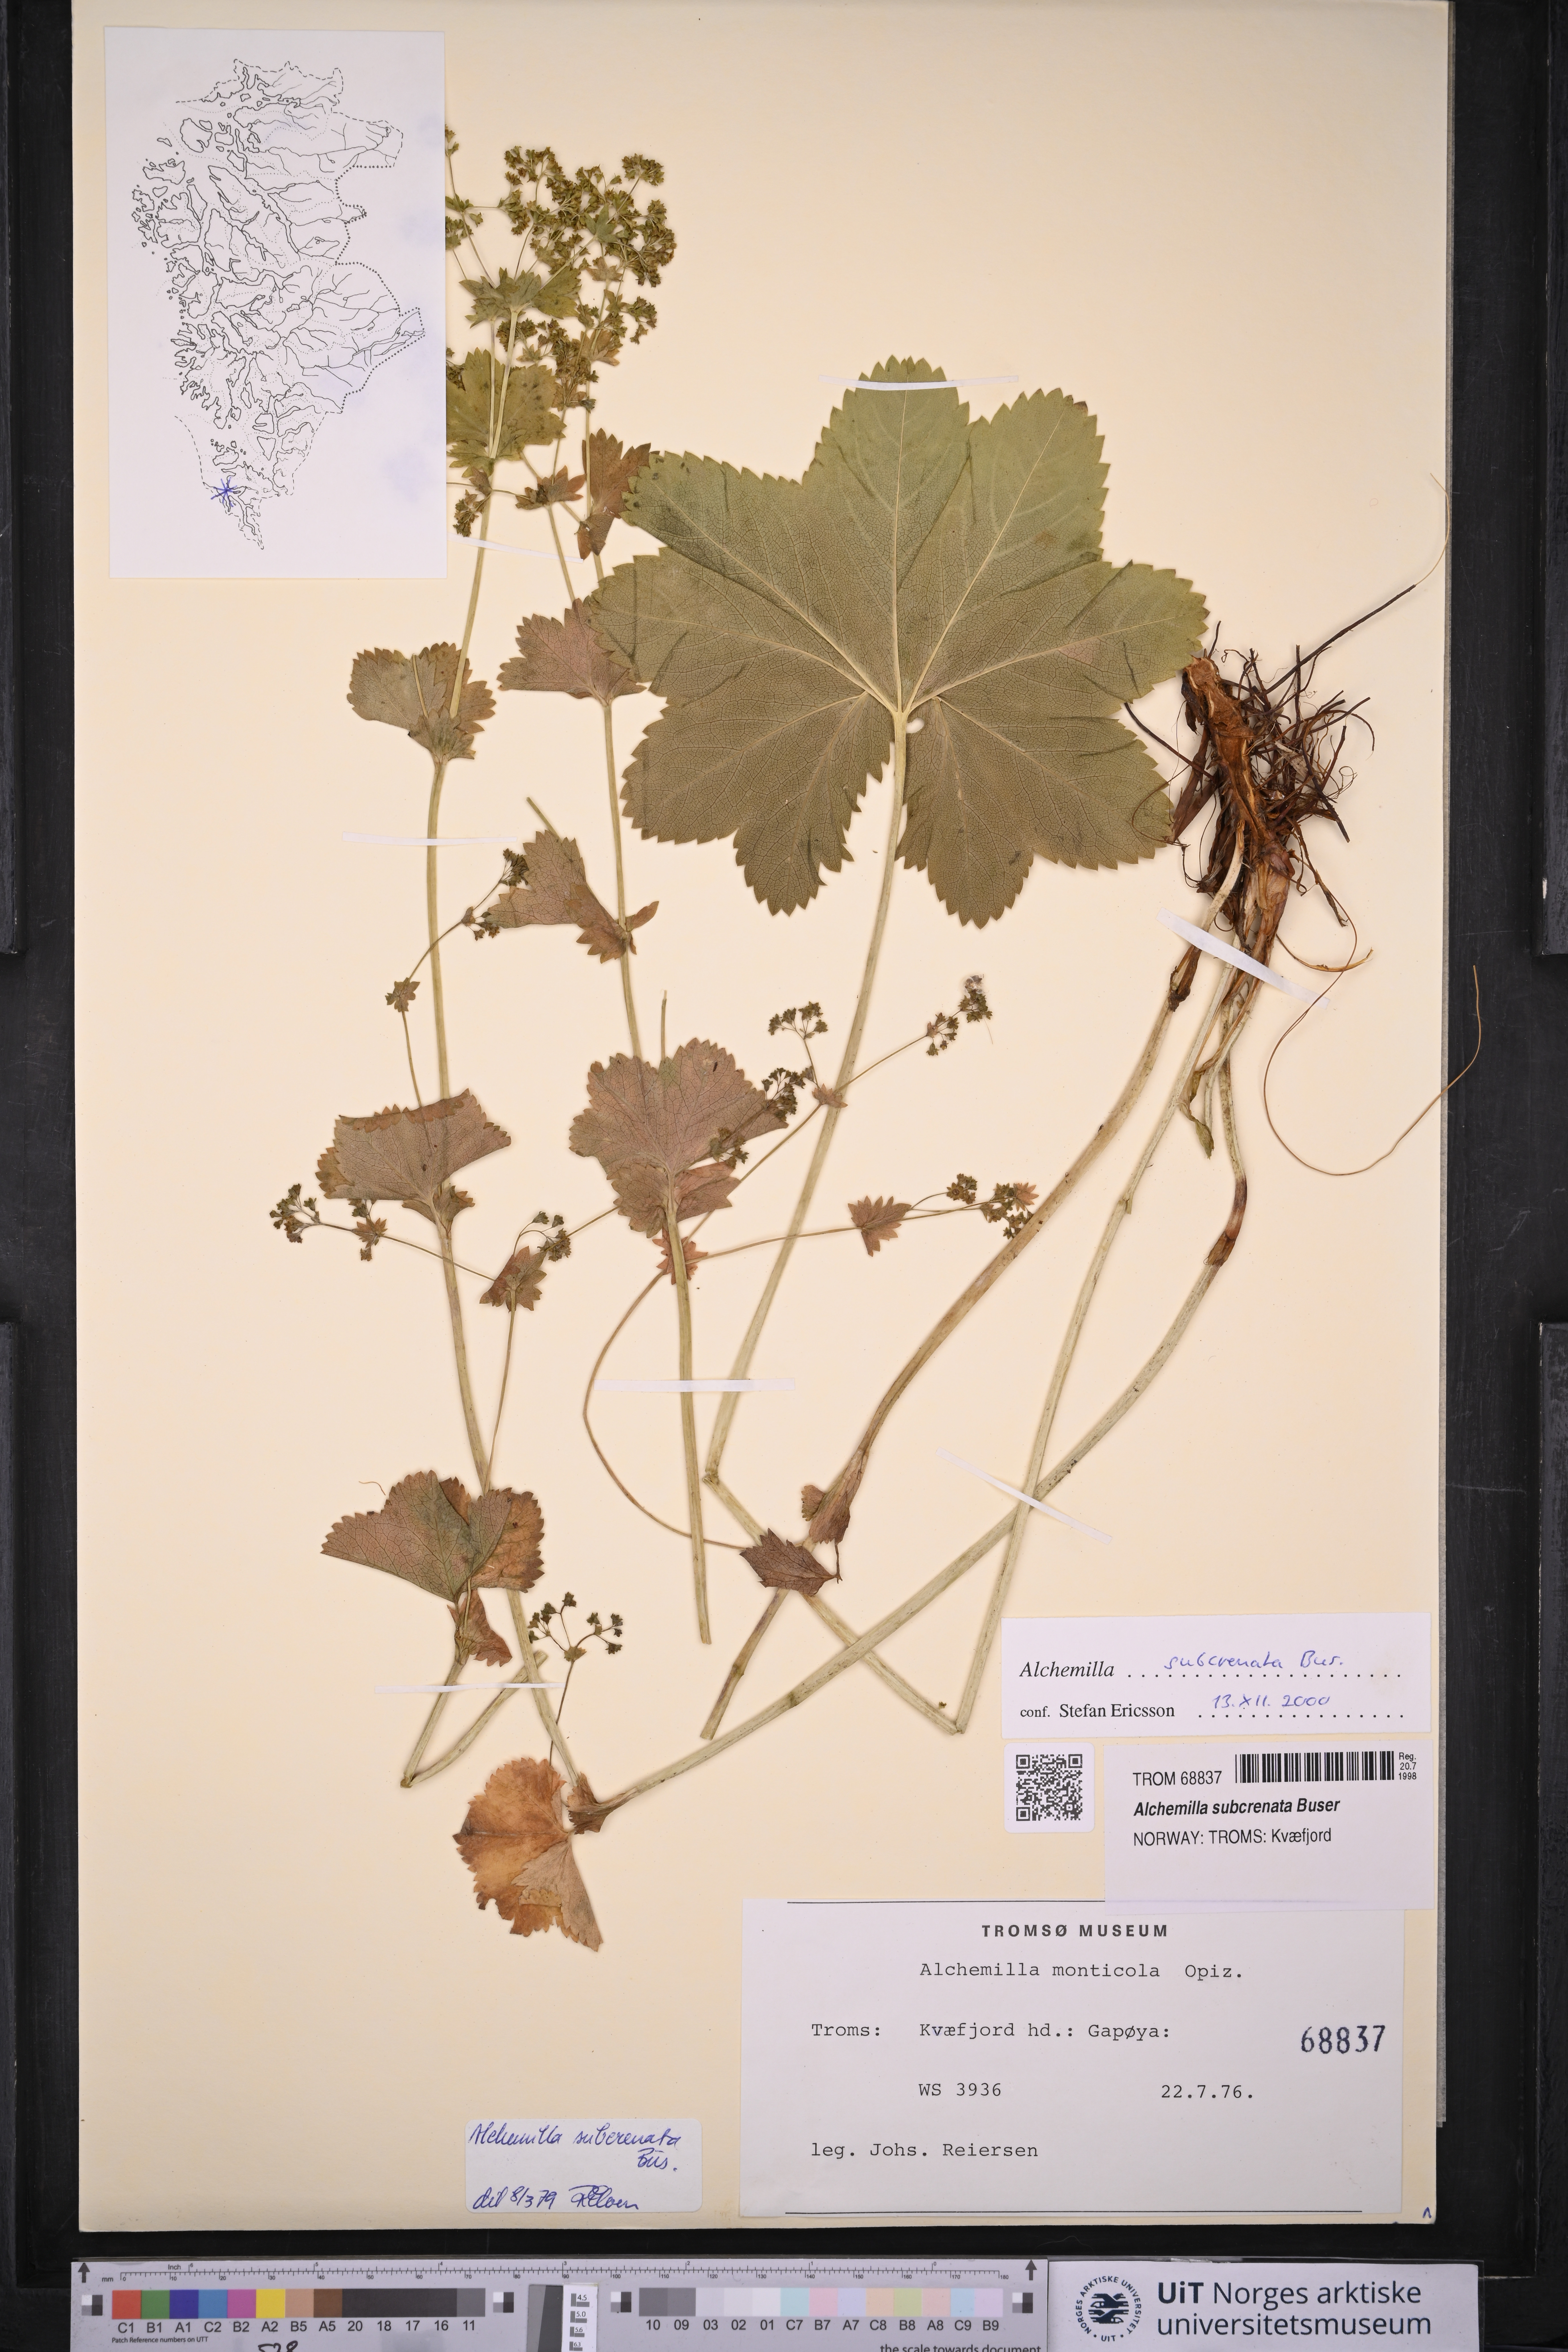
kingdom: Plantae
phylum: Tracheophyta
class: Magnoliopsida
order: Rosales
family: Rosaceae
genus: Alchemilla
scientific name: Alchemilla subcrenata
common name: Broadtooth lady's mantle
